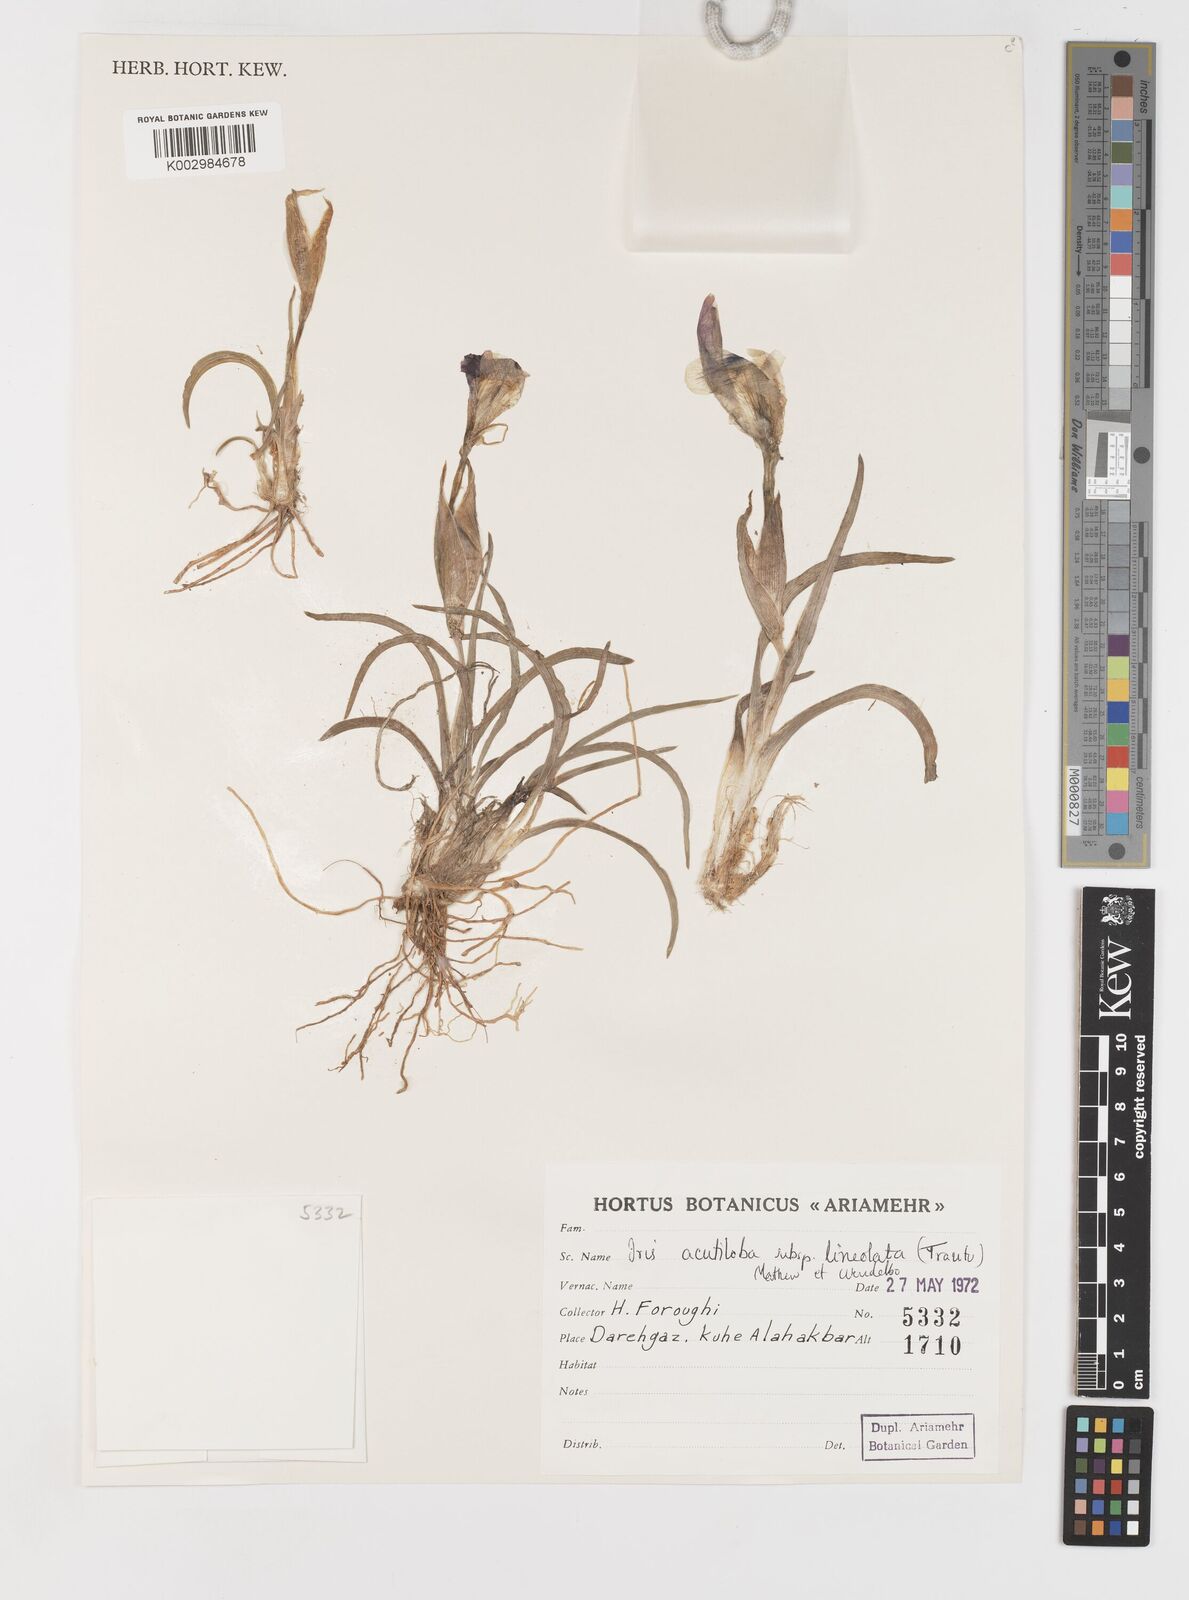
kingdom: Plantae
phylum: Tracheophyta
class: Liliopsida
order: Asparagales
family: Iridaceae
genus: Iris
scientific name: Iris acutiloba
